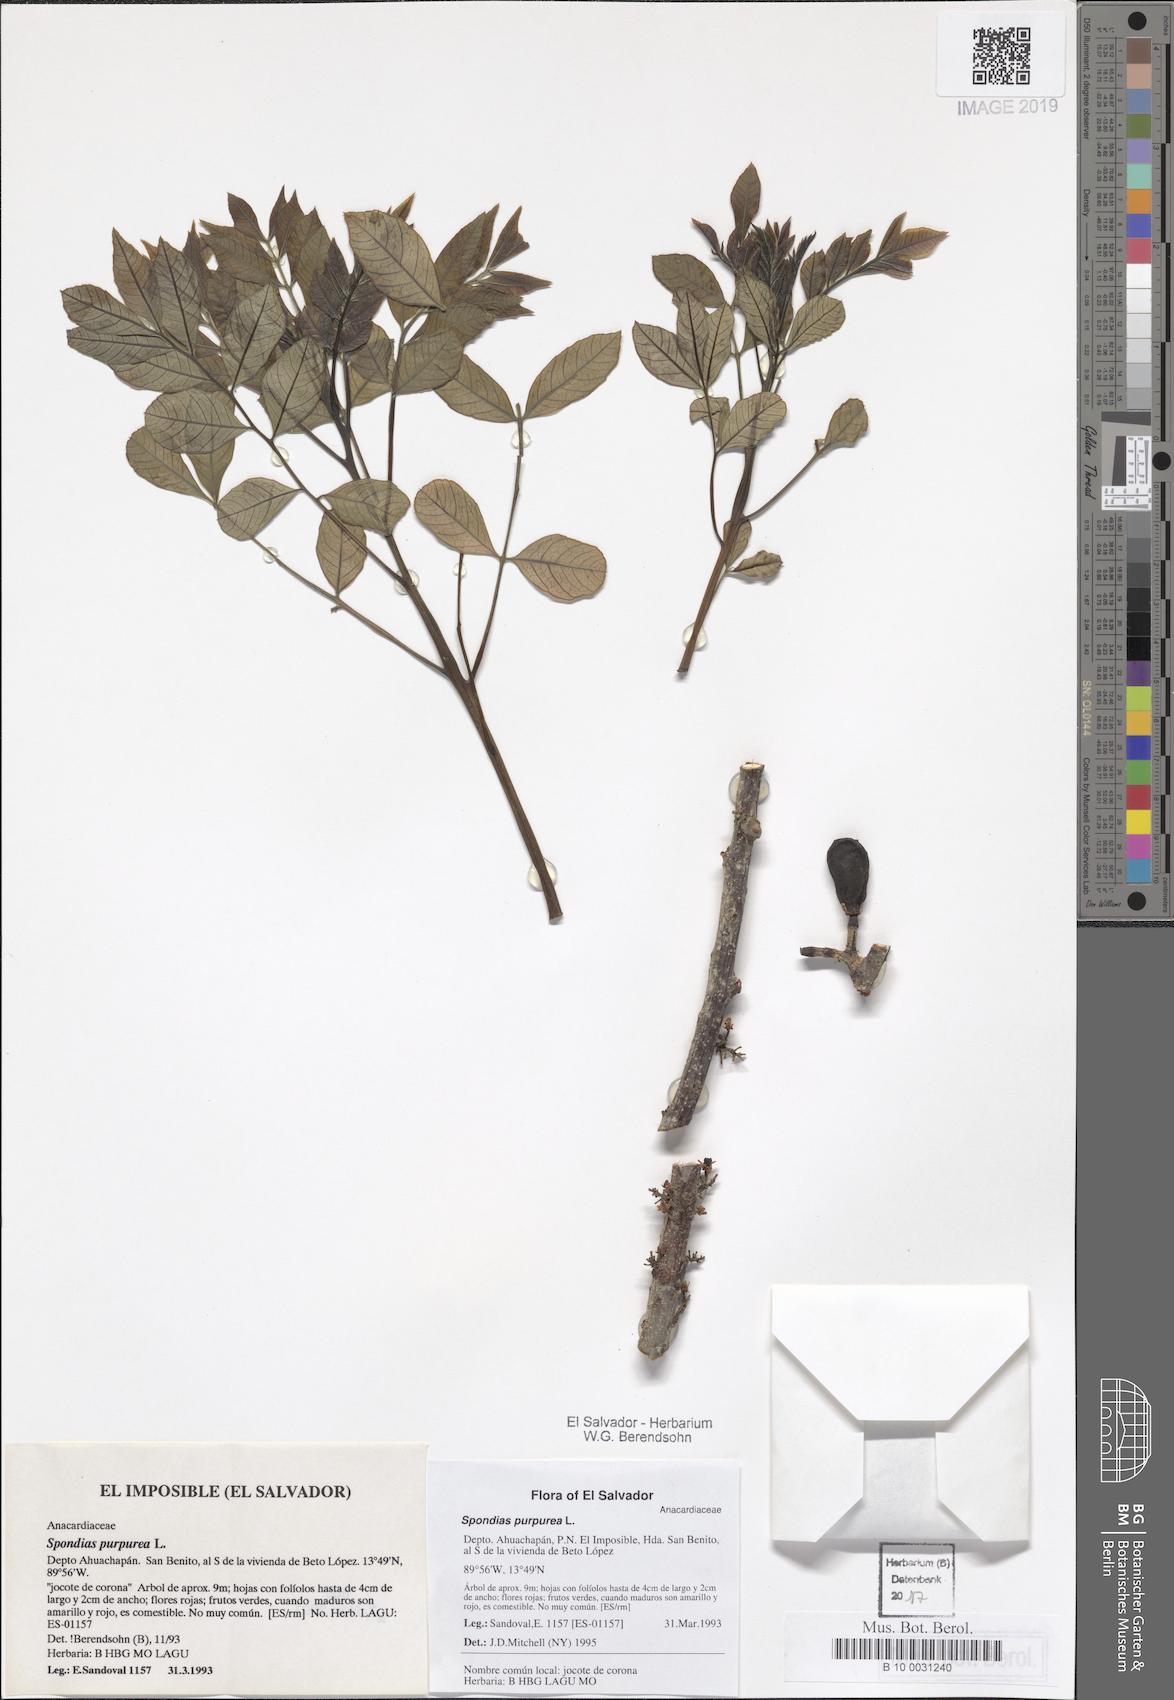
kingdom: Plantae
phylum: Tracheophyta
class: Magnoliopsida
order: Sapindales
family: Anacardiaceae
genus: Spondias
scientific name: Spondias purpurea
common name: Purple mombin
